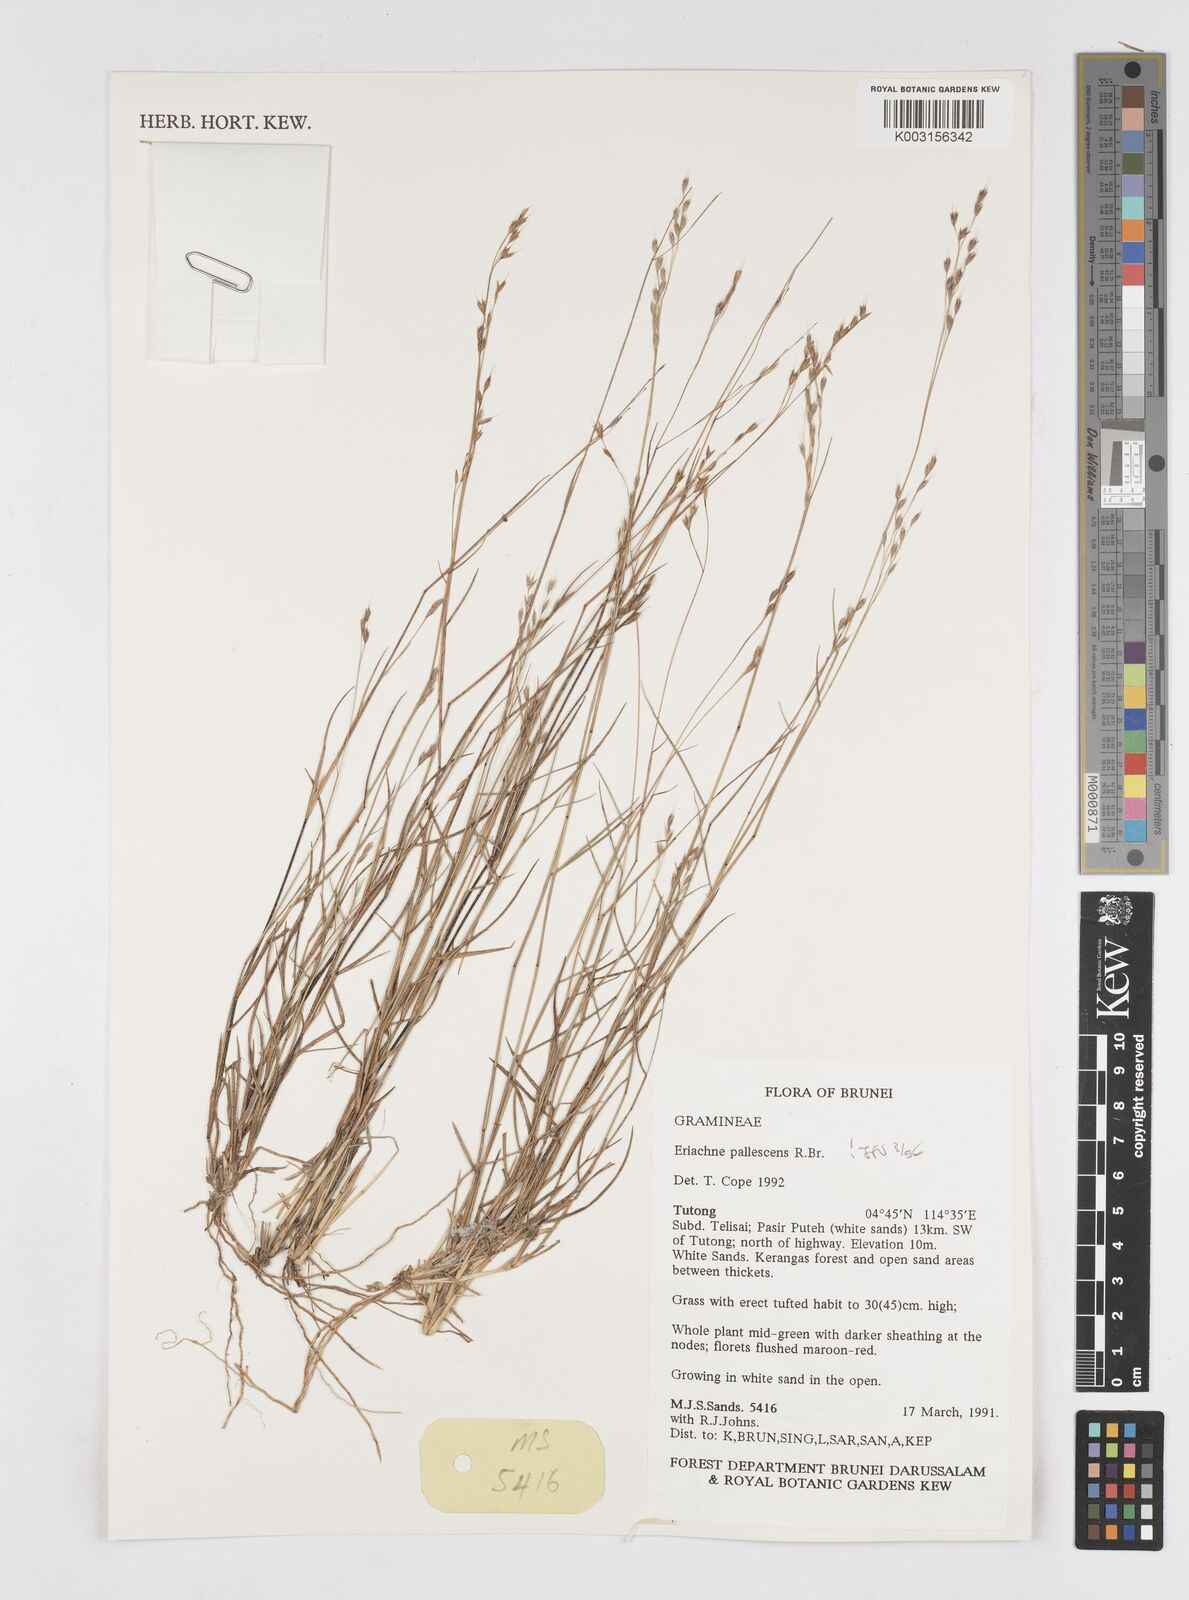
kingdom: Plantae
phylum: Tracheophyta
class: Liliopsida
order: Poales
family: Poaceae
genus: Eriachne
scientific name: Eriachne pallescens
